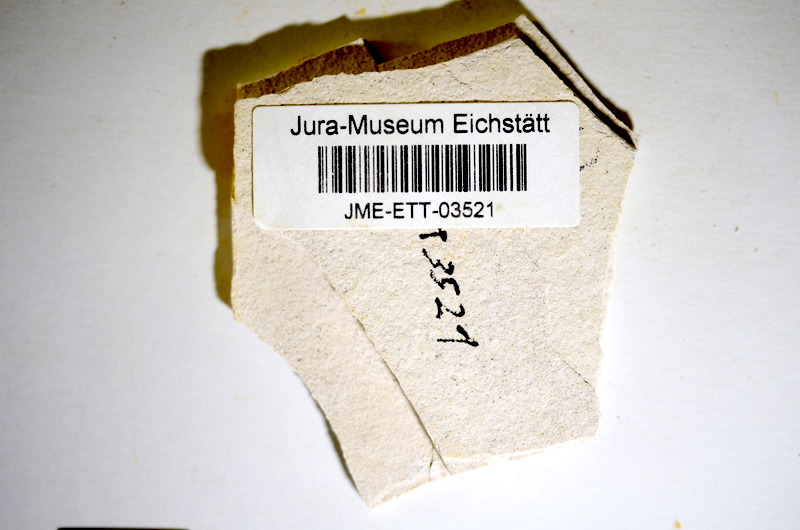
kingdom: Animalia
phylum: Chordata
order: Salmoniformes
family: Orthogonikleithridae
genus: Orthogonikleithrus
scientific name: Orthogonikleithrus hoelli
